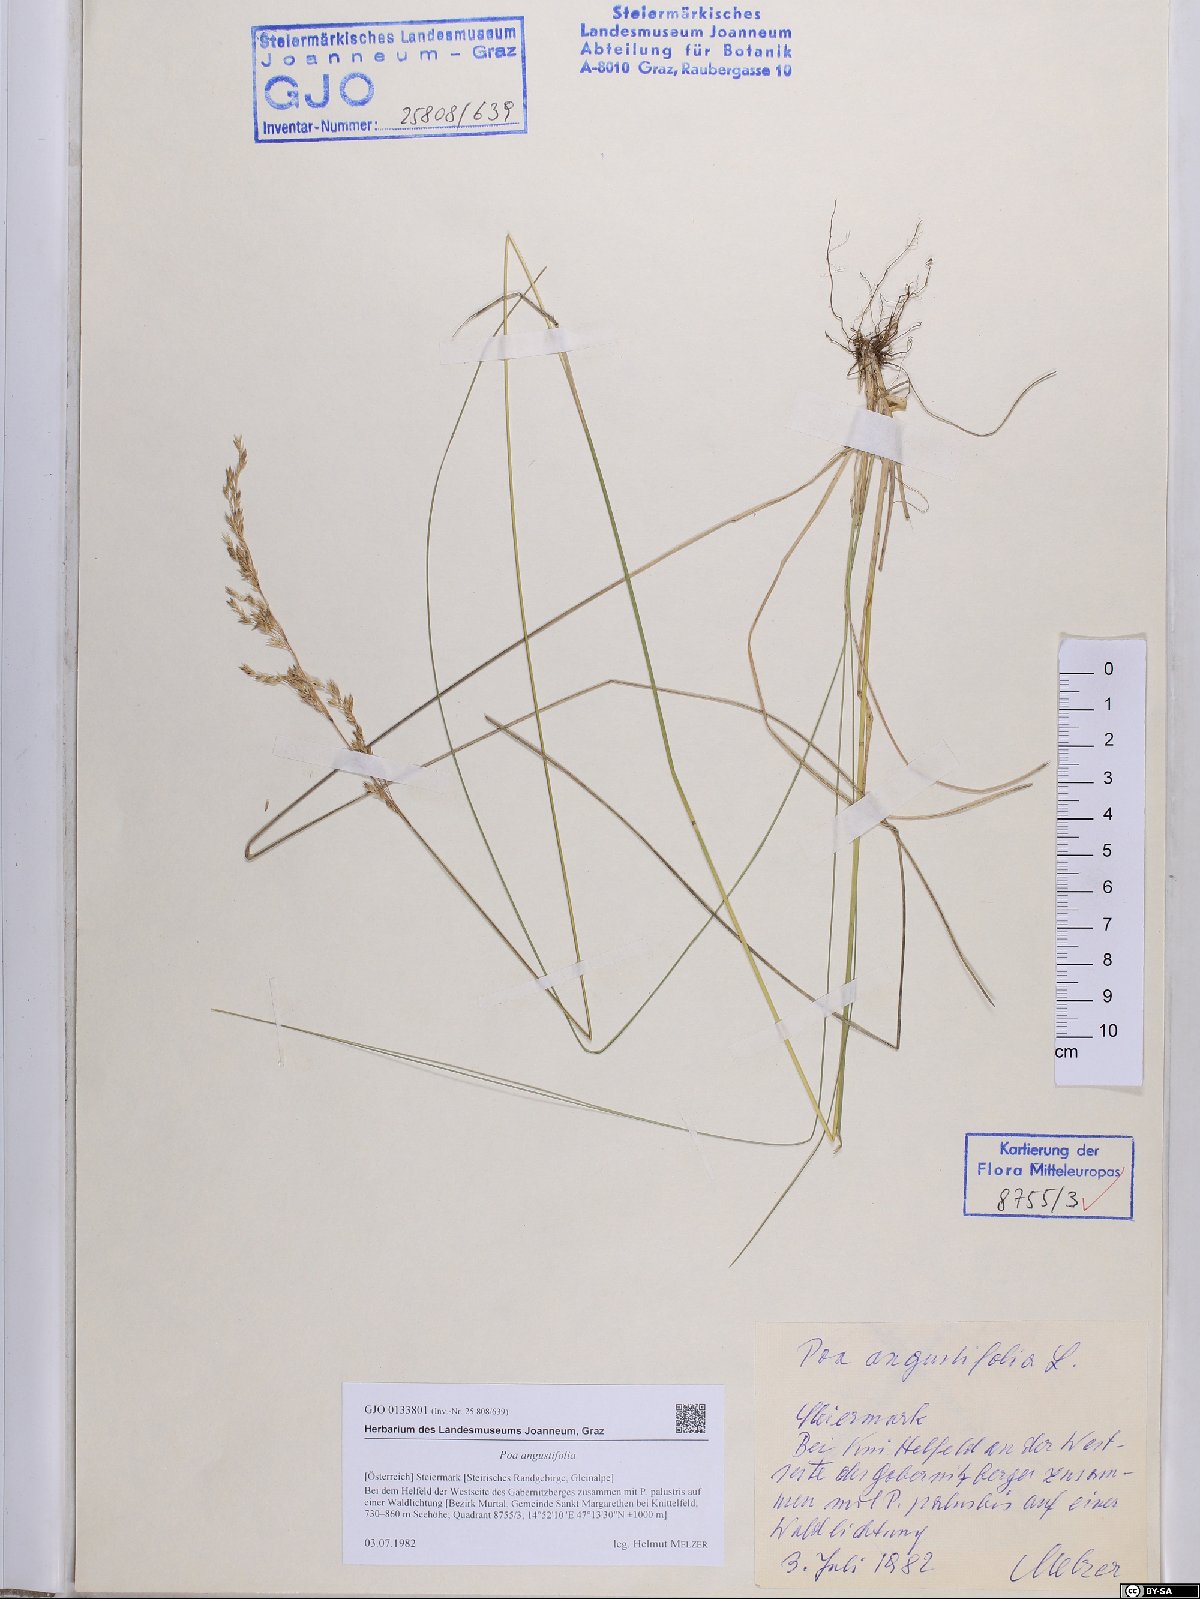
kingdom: Plantae
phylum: Tracheophyta
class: Liliopsida
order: Poales
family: Poaceae
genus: Poa
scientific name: Poa angustifolia
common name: Narrow-leaved meadow-grass
